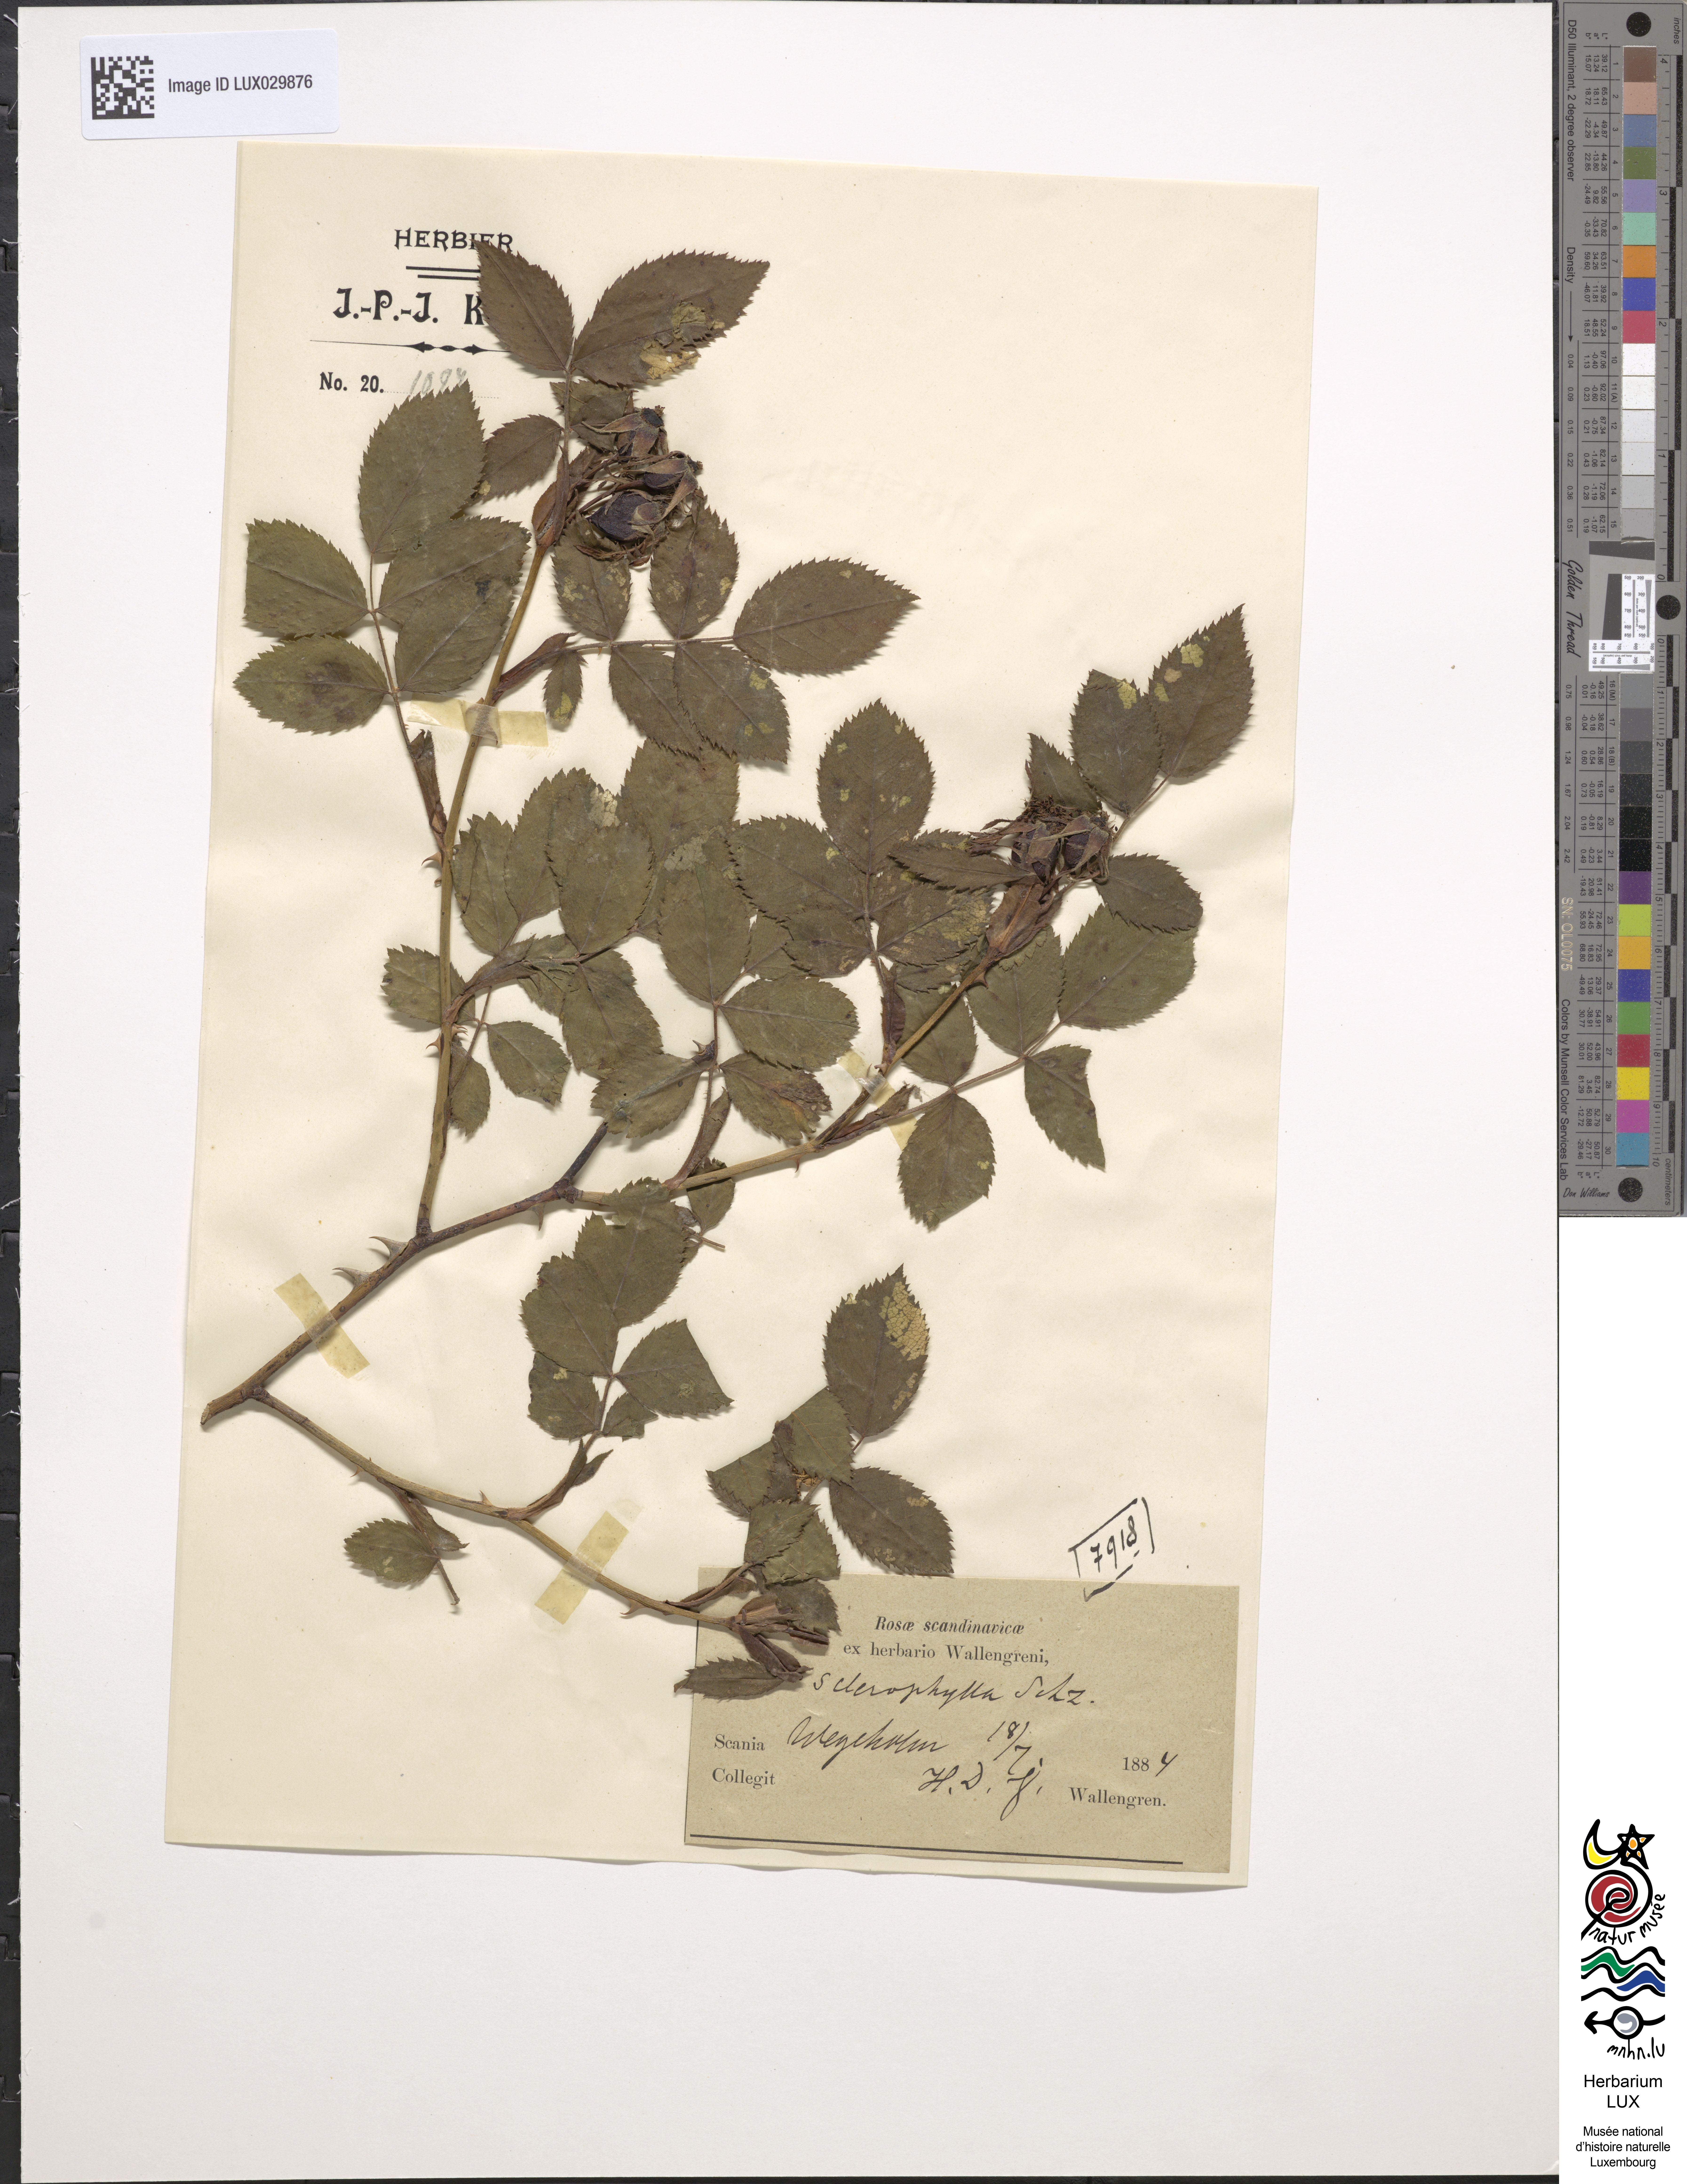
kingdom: Plantae
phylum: Tracheophyta
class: Magnoliopsida
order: Rosales
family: Rosaceae
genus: Rosa
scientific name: Rosa balsamica
